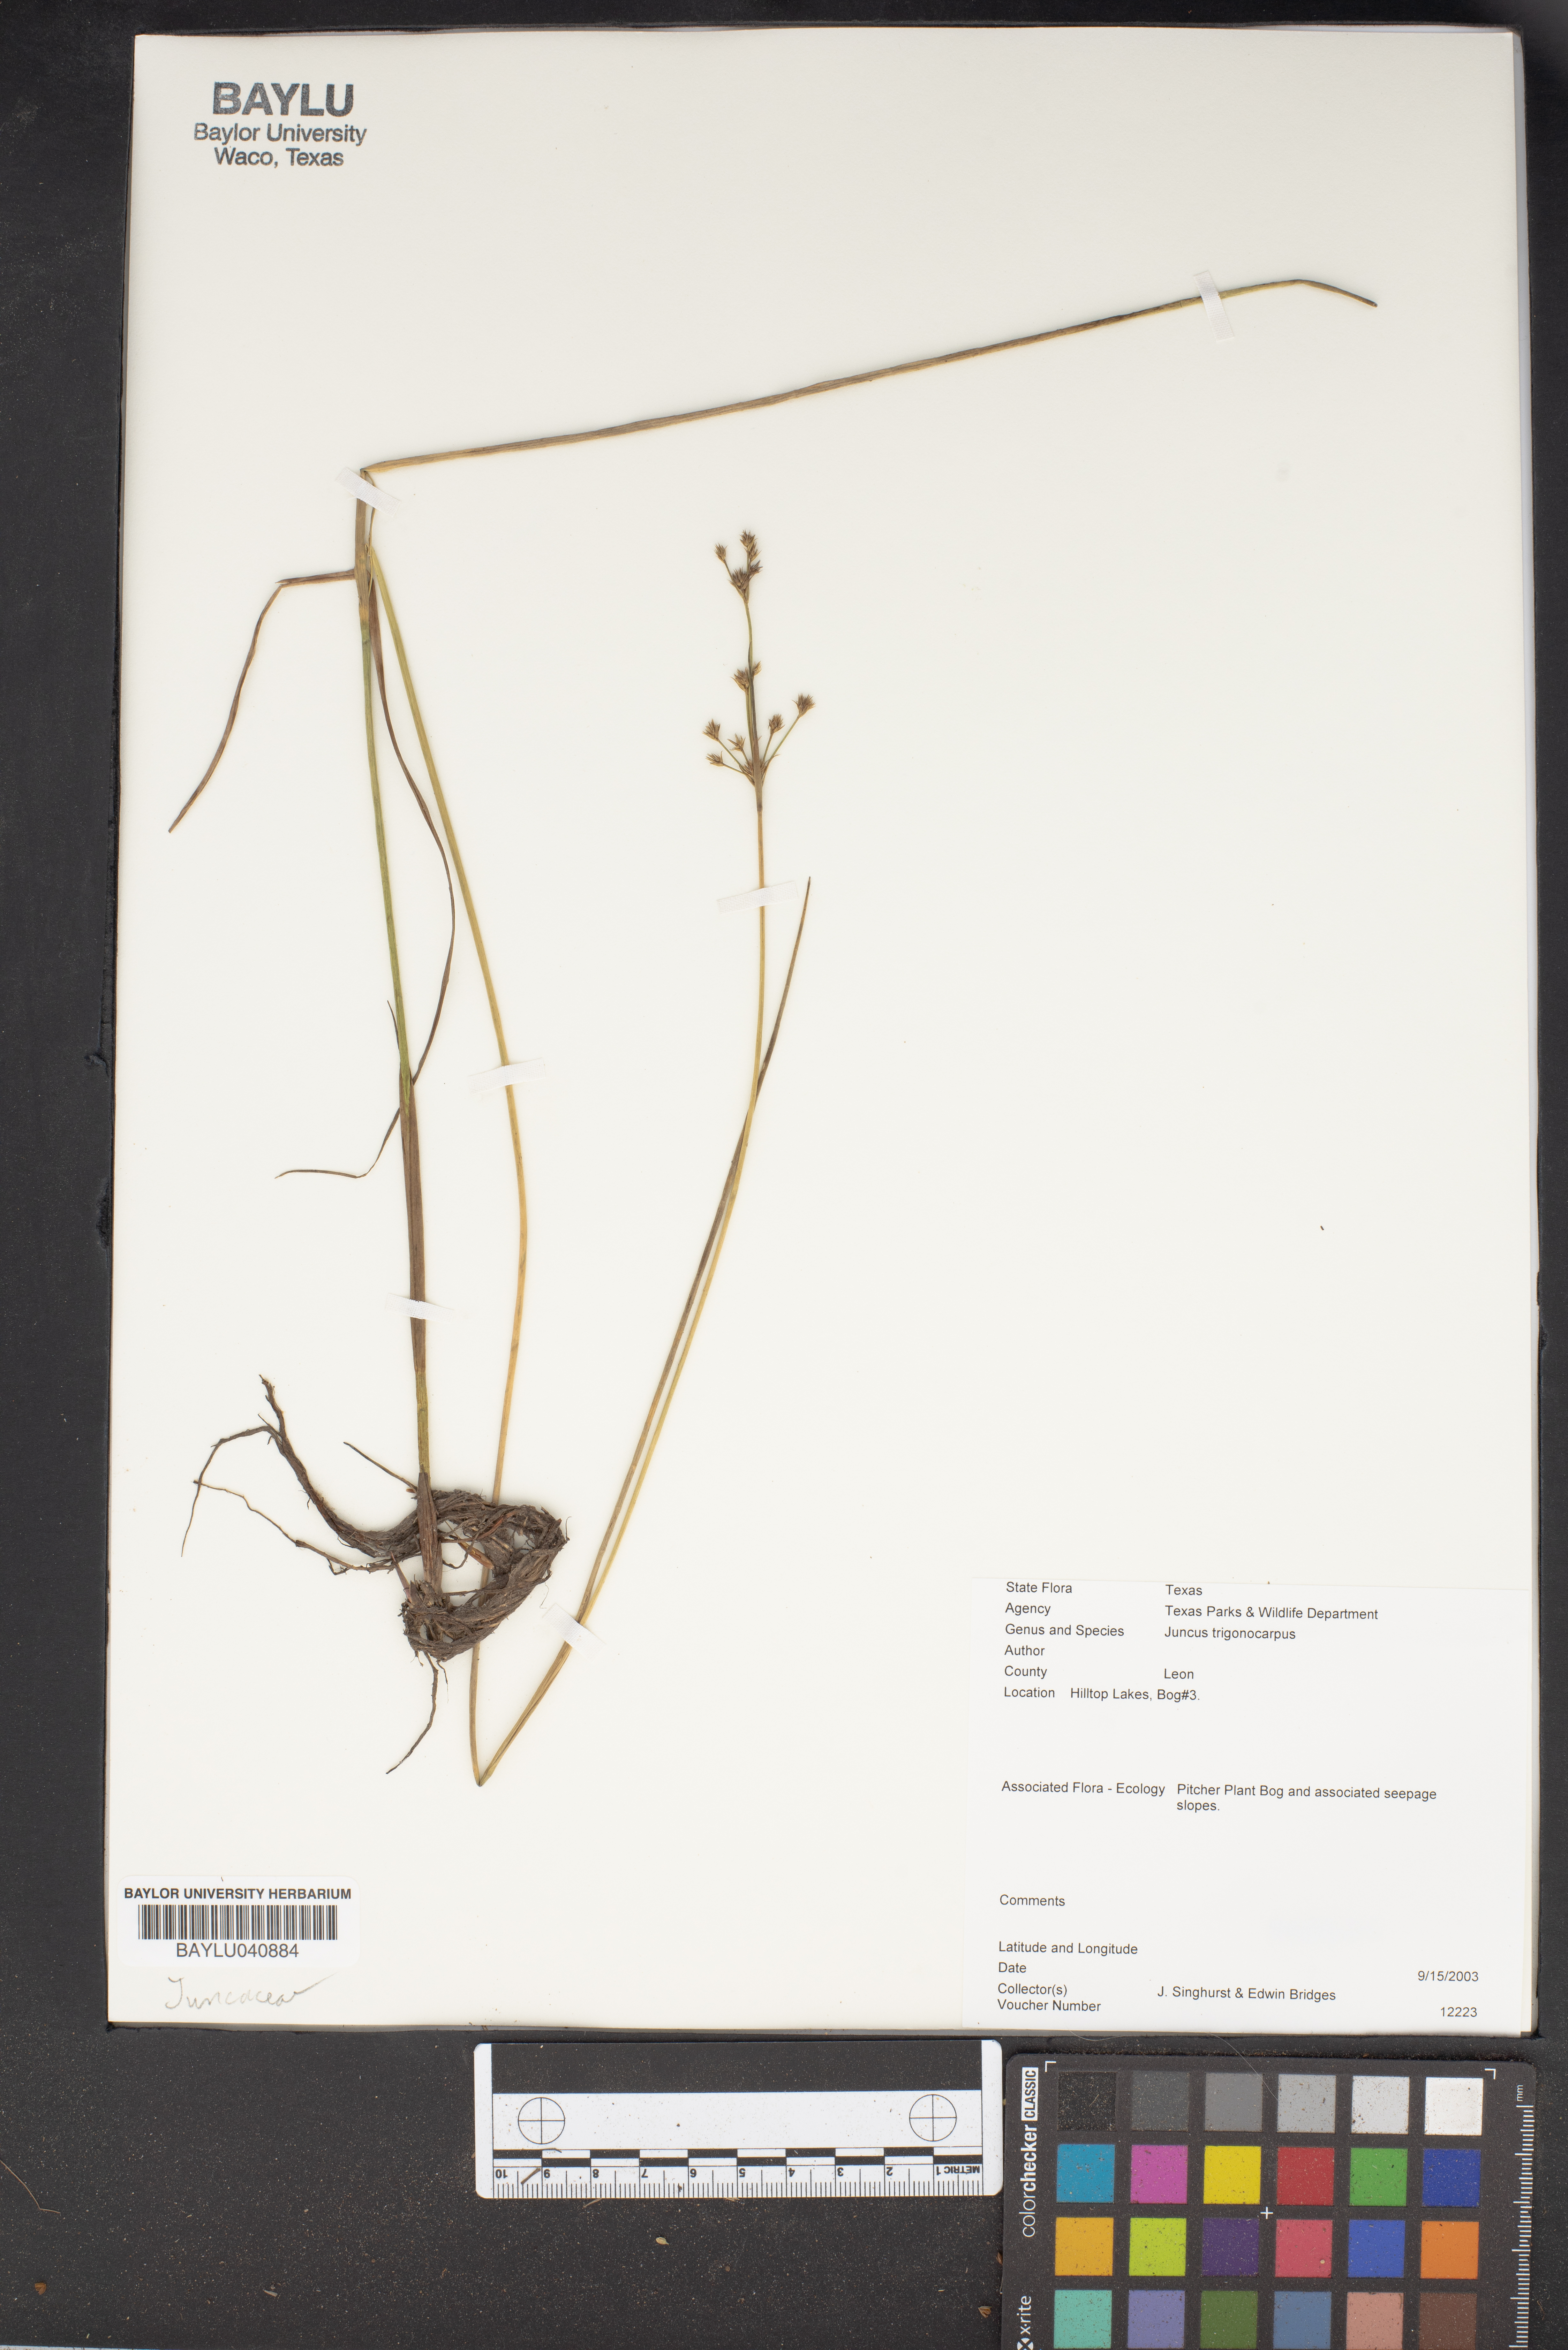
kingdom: Plantae
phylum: Tracheophyta
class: Liliopsida
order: Poales
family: Juncaceae
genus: Juncus
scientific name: Juncus trigonocarpus
